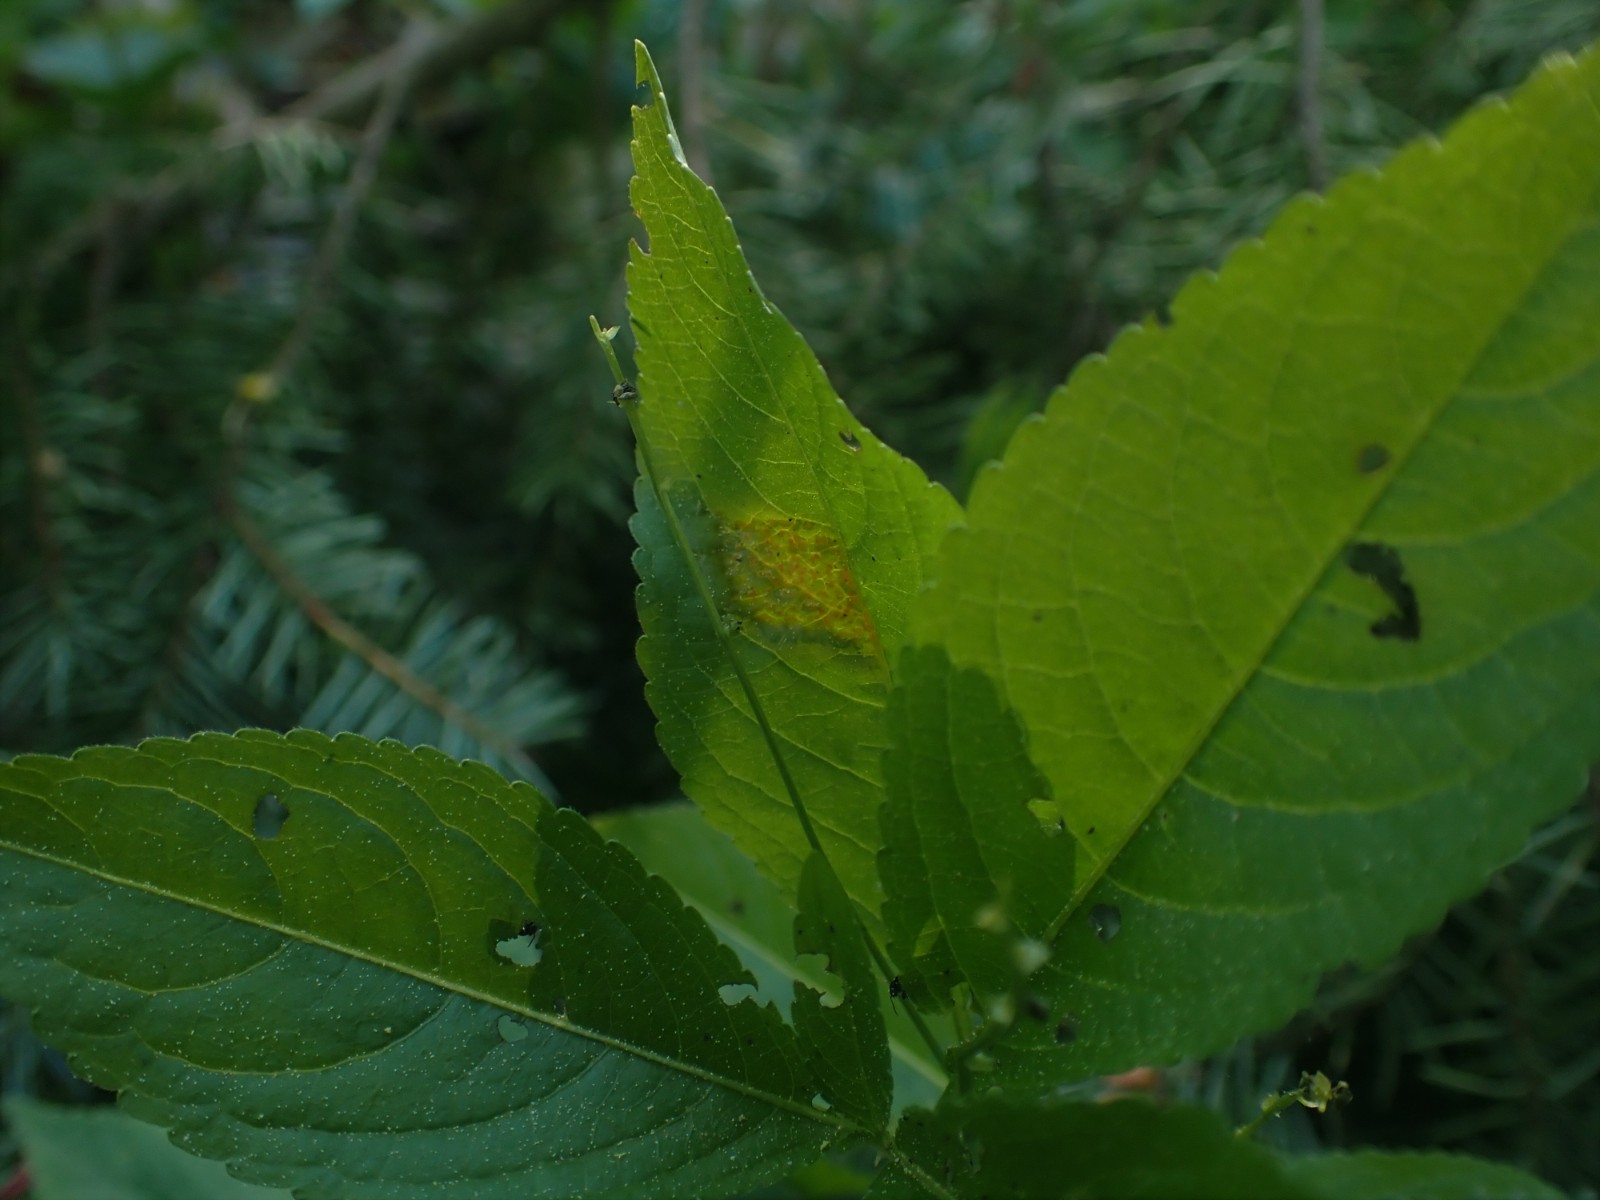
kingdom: Fungi
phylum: Basidiomycota
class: Pucciniomycetes
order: Pucciniales
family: Melampsoraceae
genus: Melampsora
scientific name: Melampsora populnea
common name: poppel-skorperust
